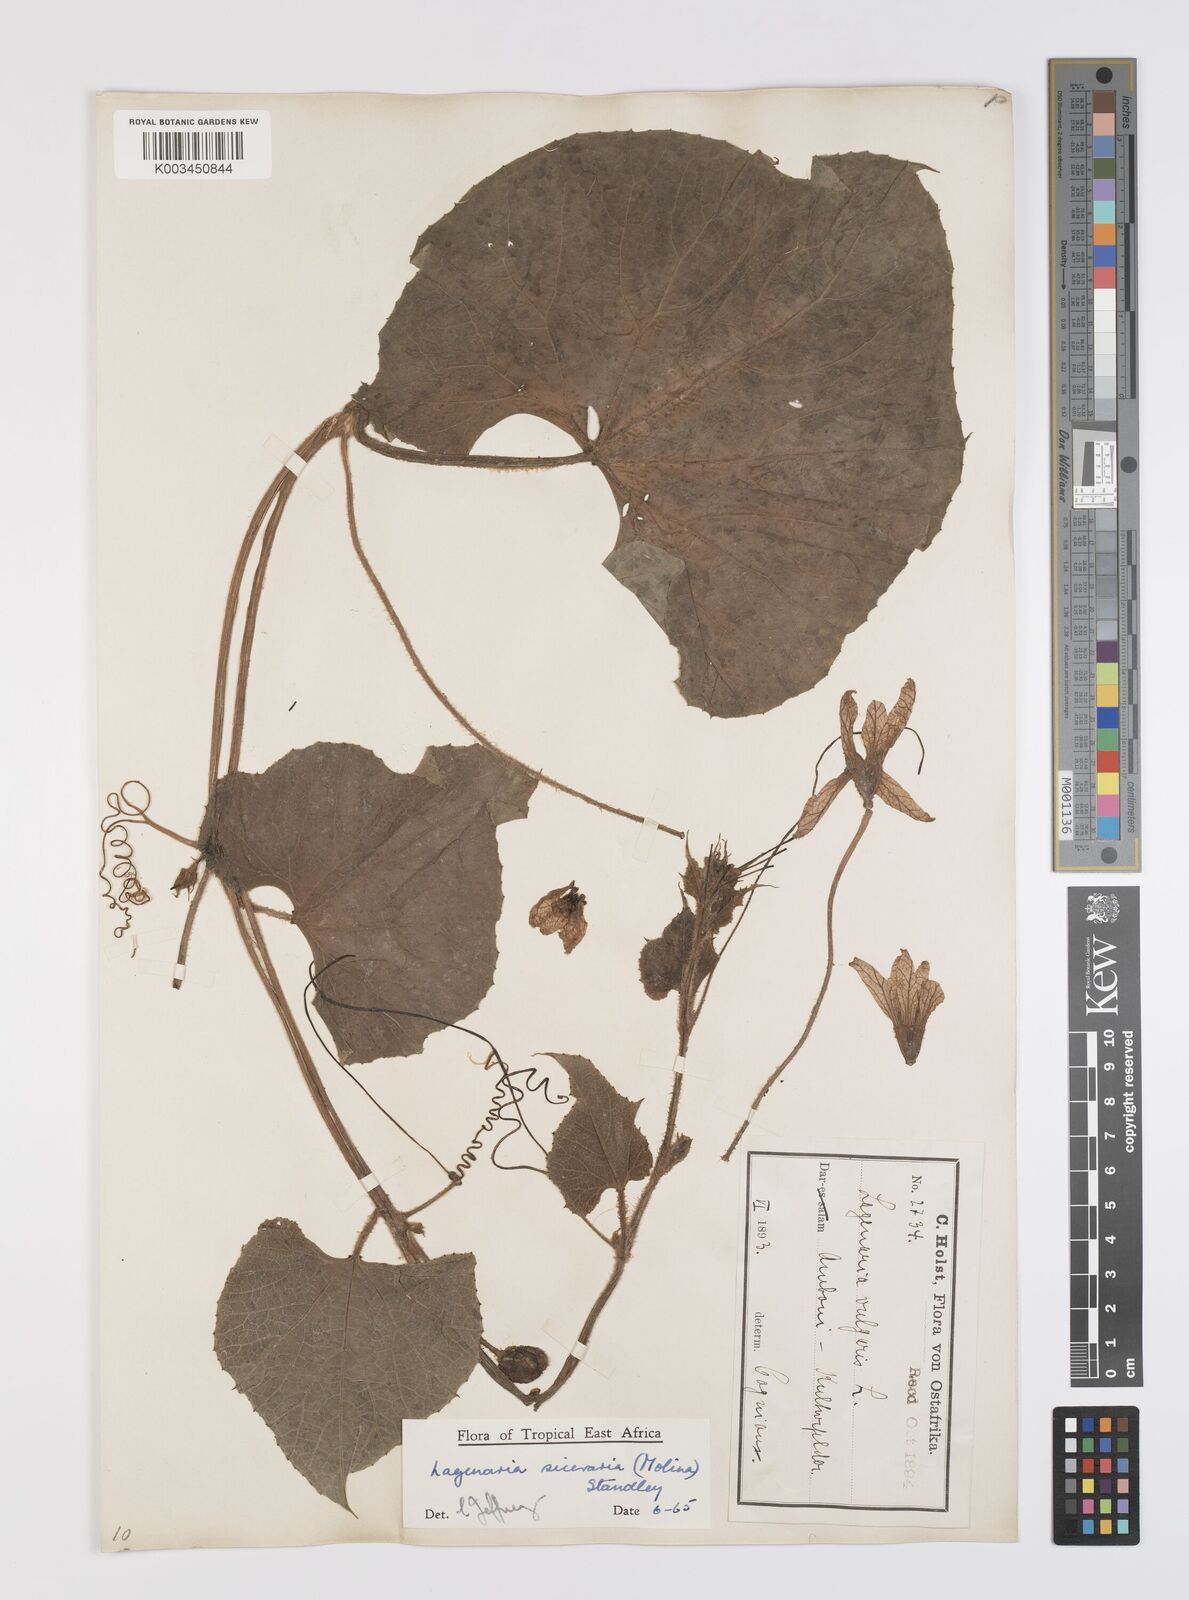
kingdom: Plantae
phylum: Tracheophyta
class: Magnoliopsida
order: Cucurbitales
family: Cucurbitaceae
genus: Lagenaria
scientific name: Lagenaria siceraria
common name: Bottle gourd
